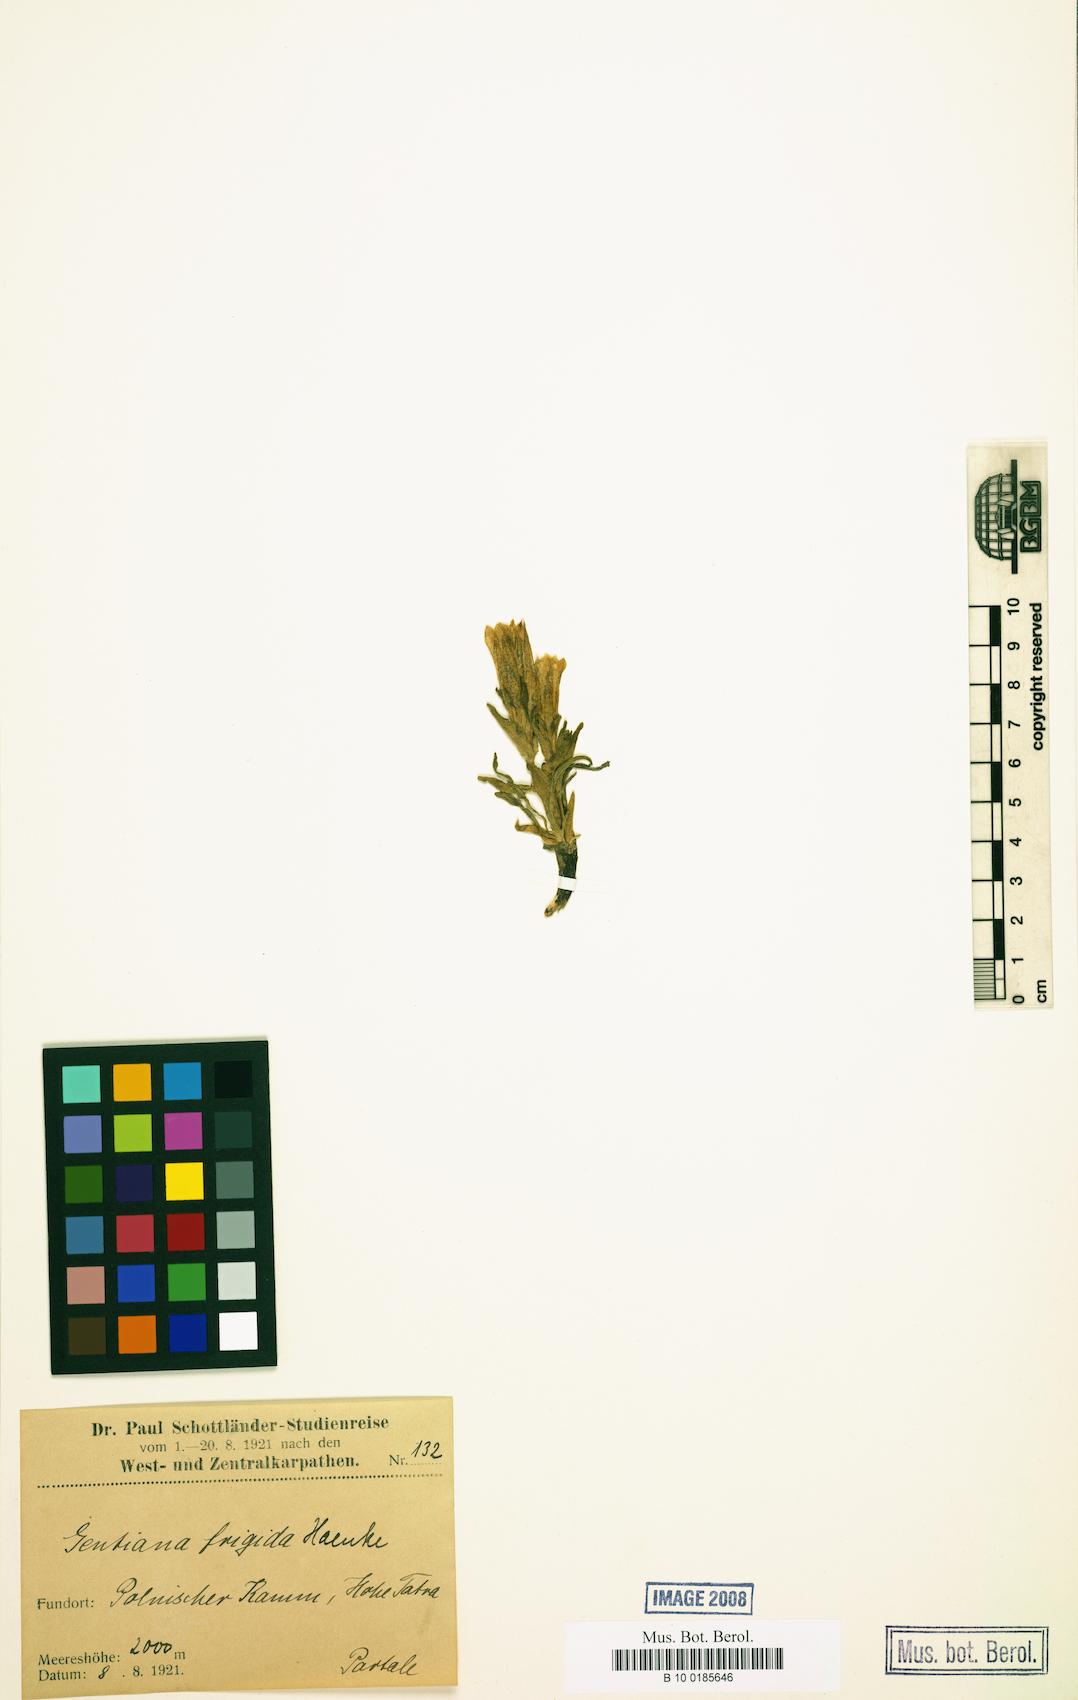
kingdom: Plantae
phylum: Tracheophyta
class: Magnoliopsida
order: Gentianales
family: Gentianaceae
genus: Gentiana
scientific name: Gentiana frigida
